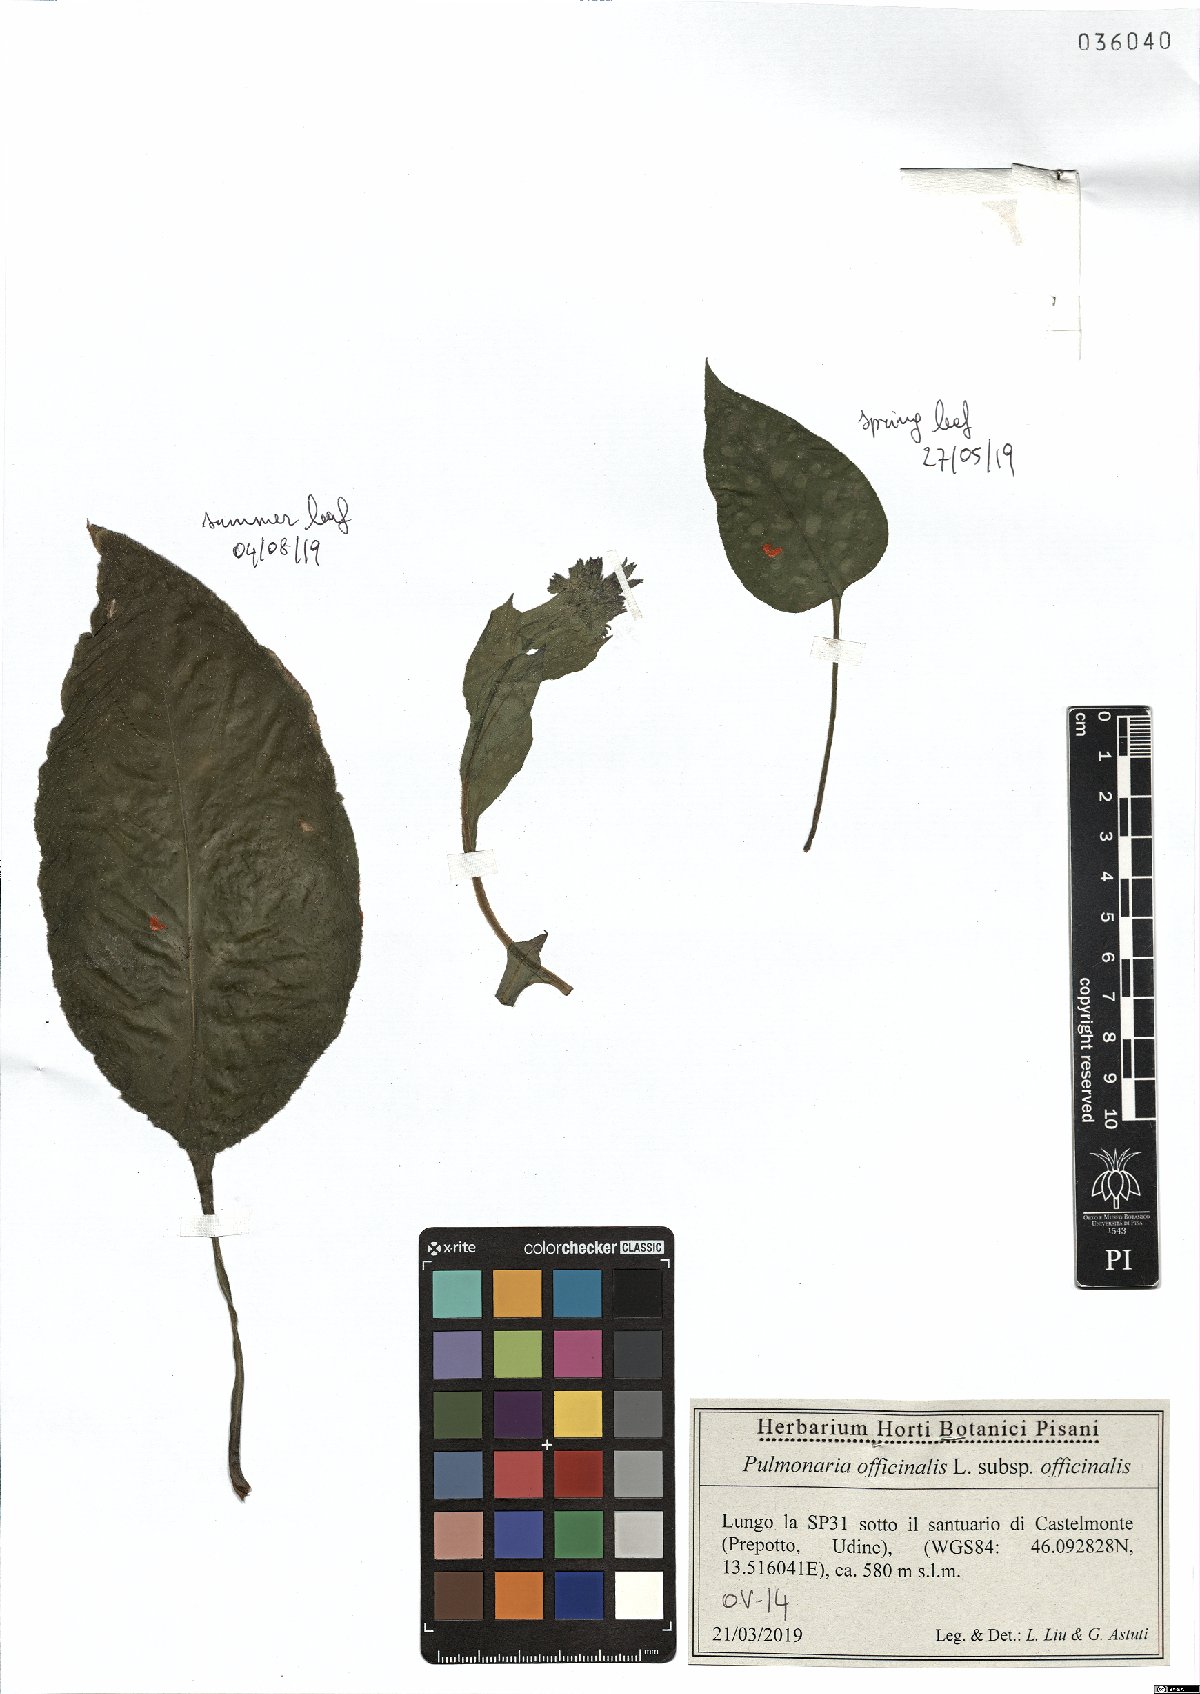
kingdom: Plantae
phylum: Tracheophyta
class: Magnoliopsida
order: Boraginales
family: Boraginaceae
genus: Pulmonaria
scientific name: Pulmonaria officinalis
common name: Lungwort
